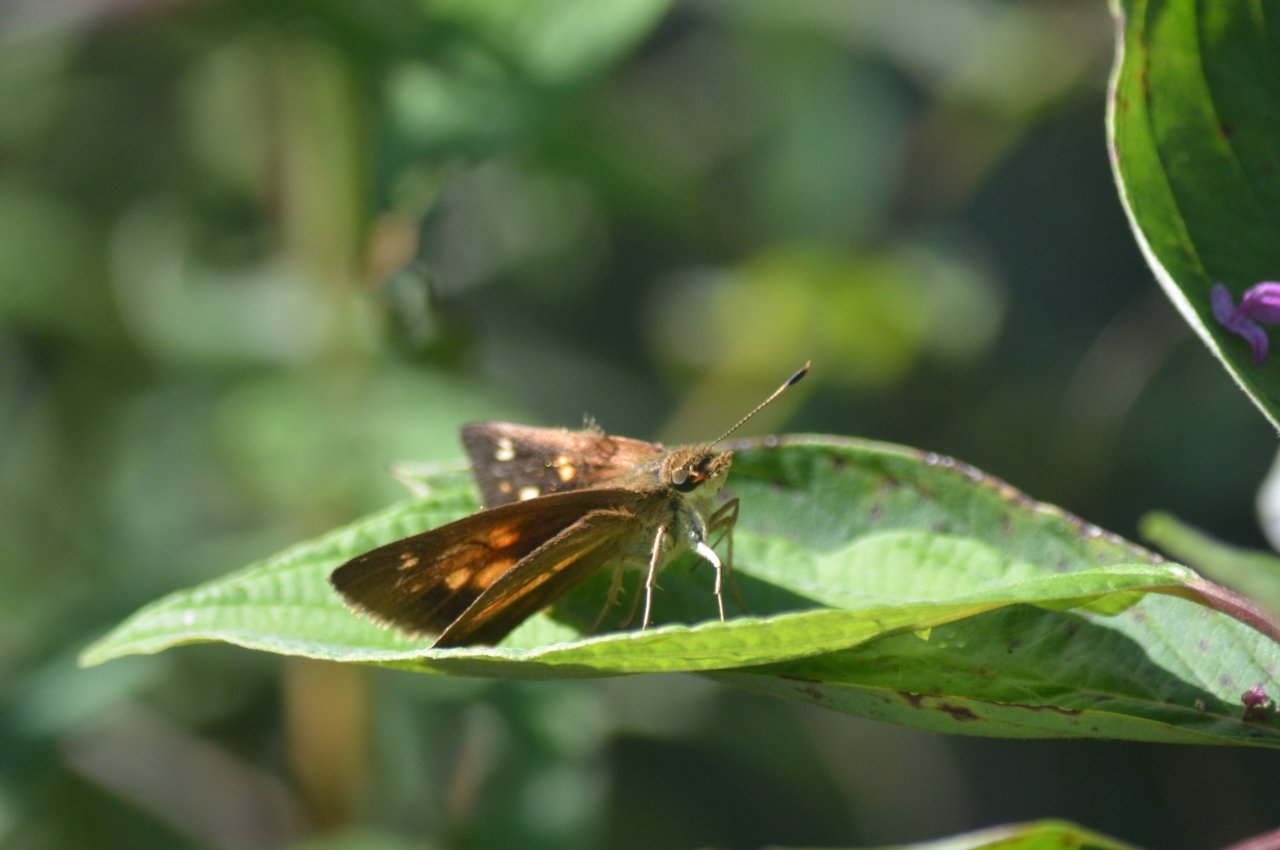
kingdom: Animalia
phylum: Arthropoda
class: Insecta
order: Lepidoptera
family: Hesperiidae
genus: Poanes
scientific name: Poanes viator
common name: Broad-winged Skipper
